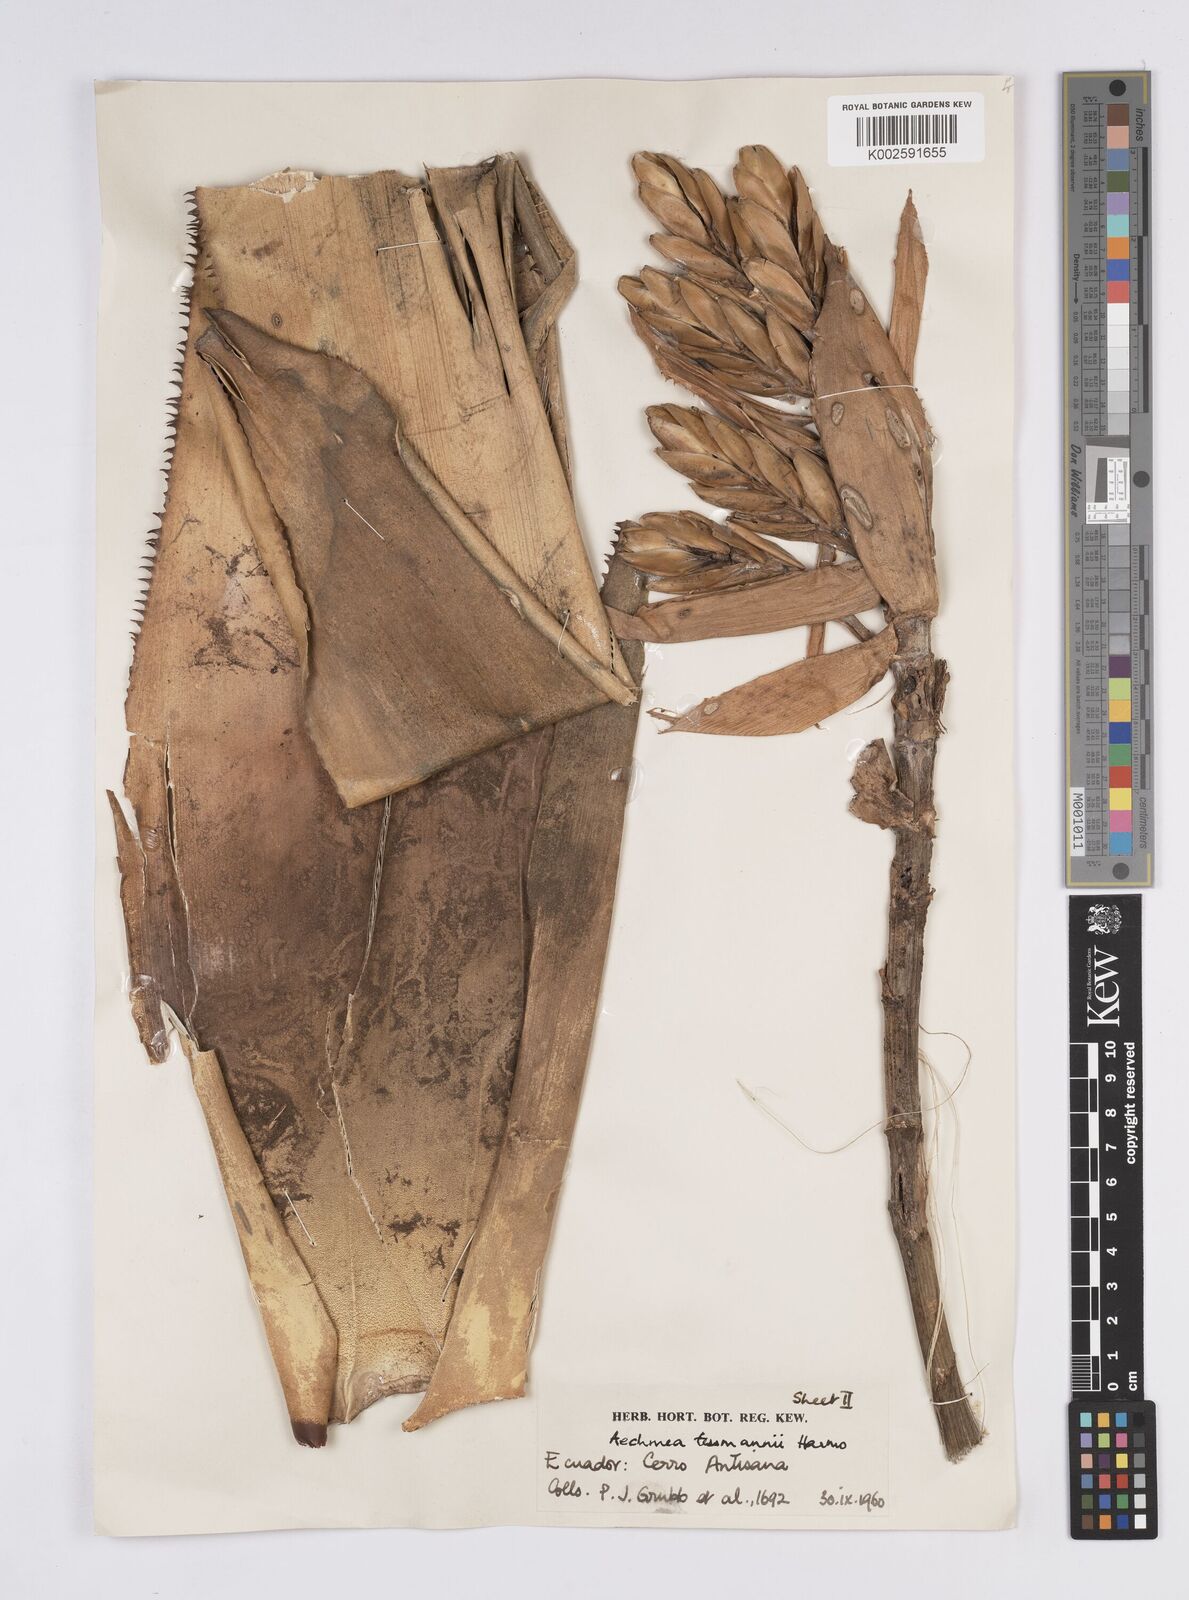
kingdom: Plantae
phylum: Tracheophyta
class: Liliopsida
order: Poales
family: Bromeliaceae
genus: Aechmea
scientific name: Aechmea tessmannii
